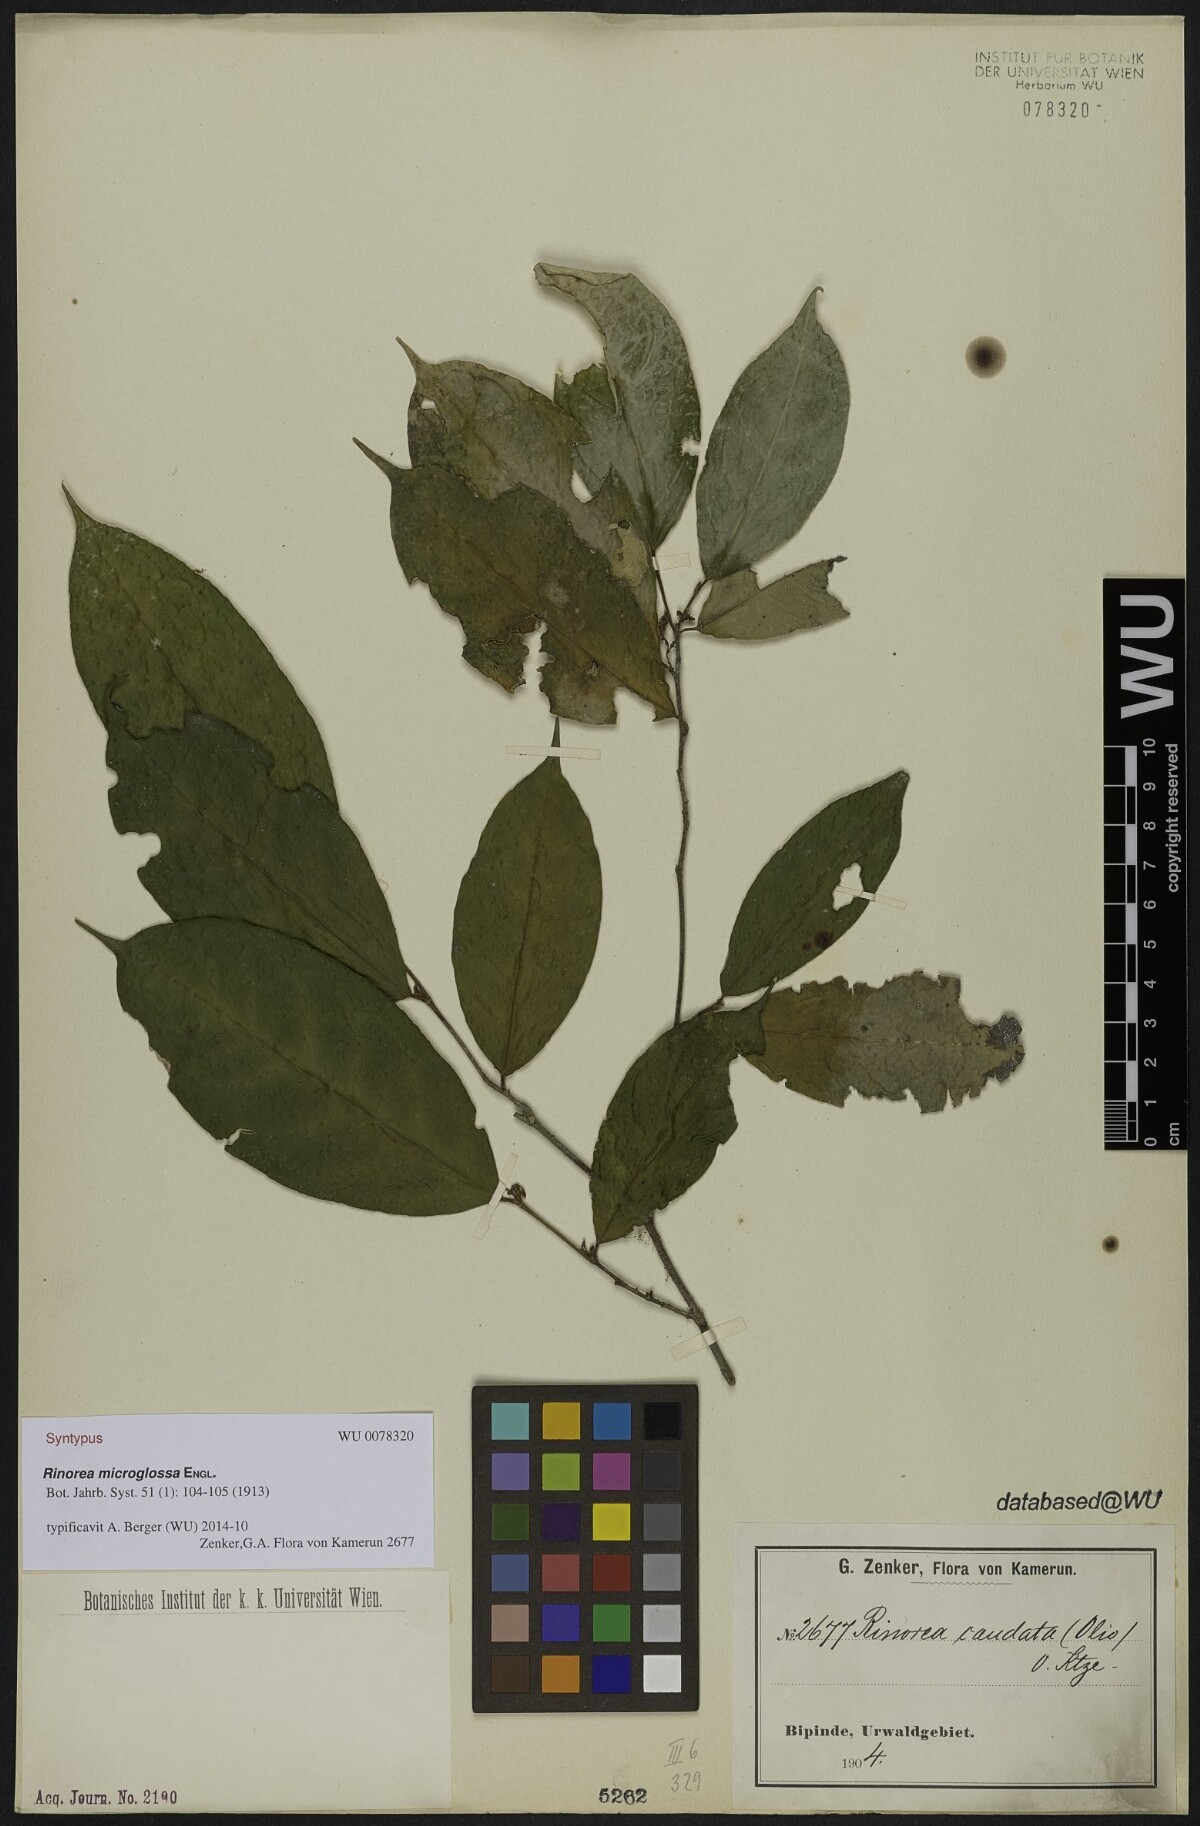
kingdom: Plantae
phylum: Tracheophyta
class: Magnoliopsida
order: Malpighiales
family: Violaceae
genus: Rinorea
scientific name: Rinorea microglossa
